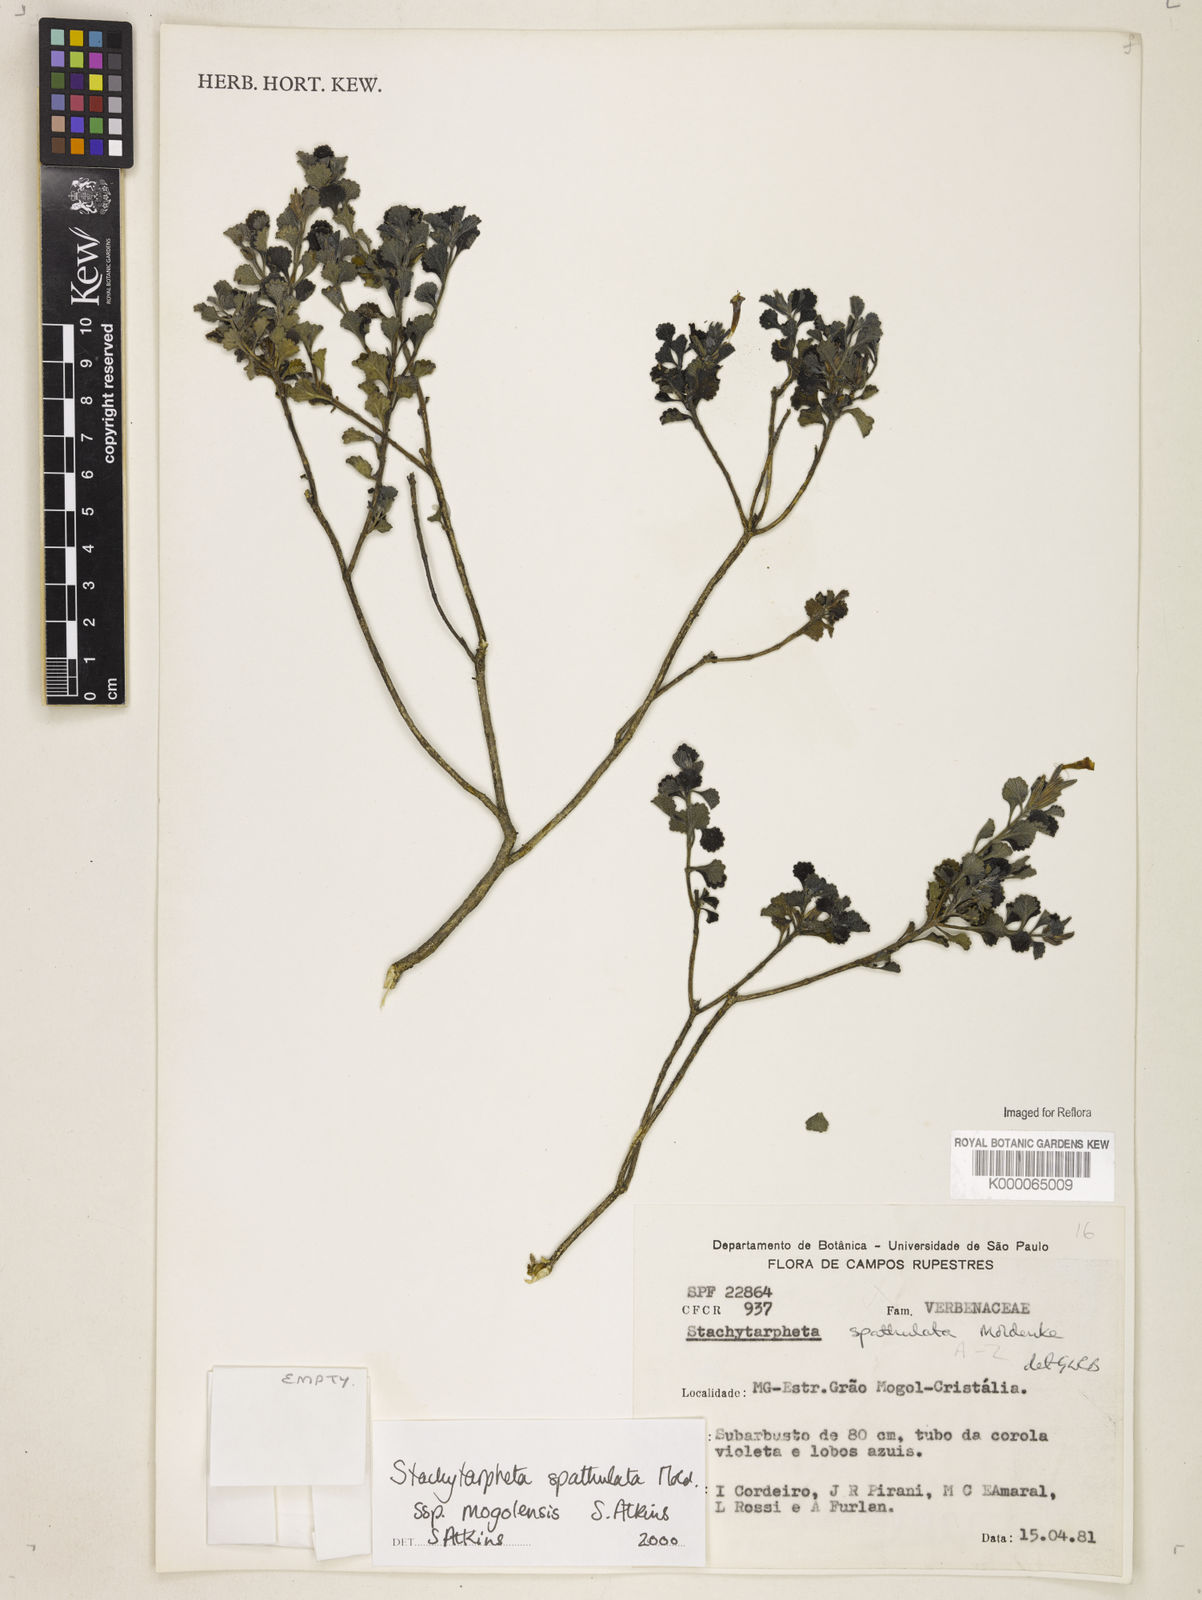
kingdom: Plantae
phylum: Tracheophyta
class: Magnoliopsida
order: Lamiales
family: Verbenaceae
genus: Stachytarpheta
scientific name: Stachytarpheta spathulata
